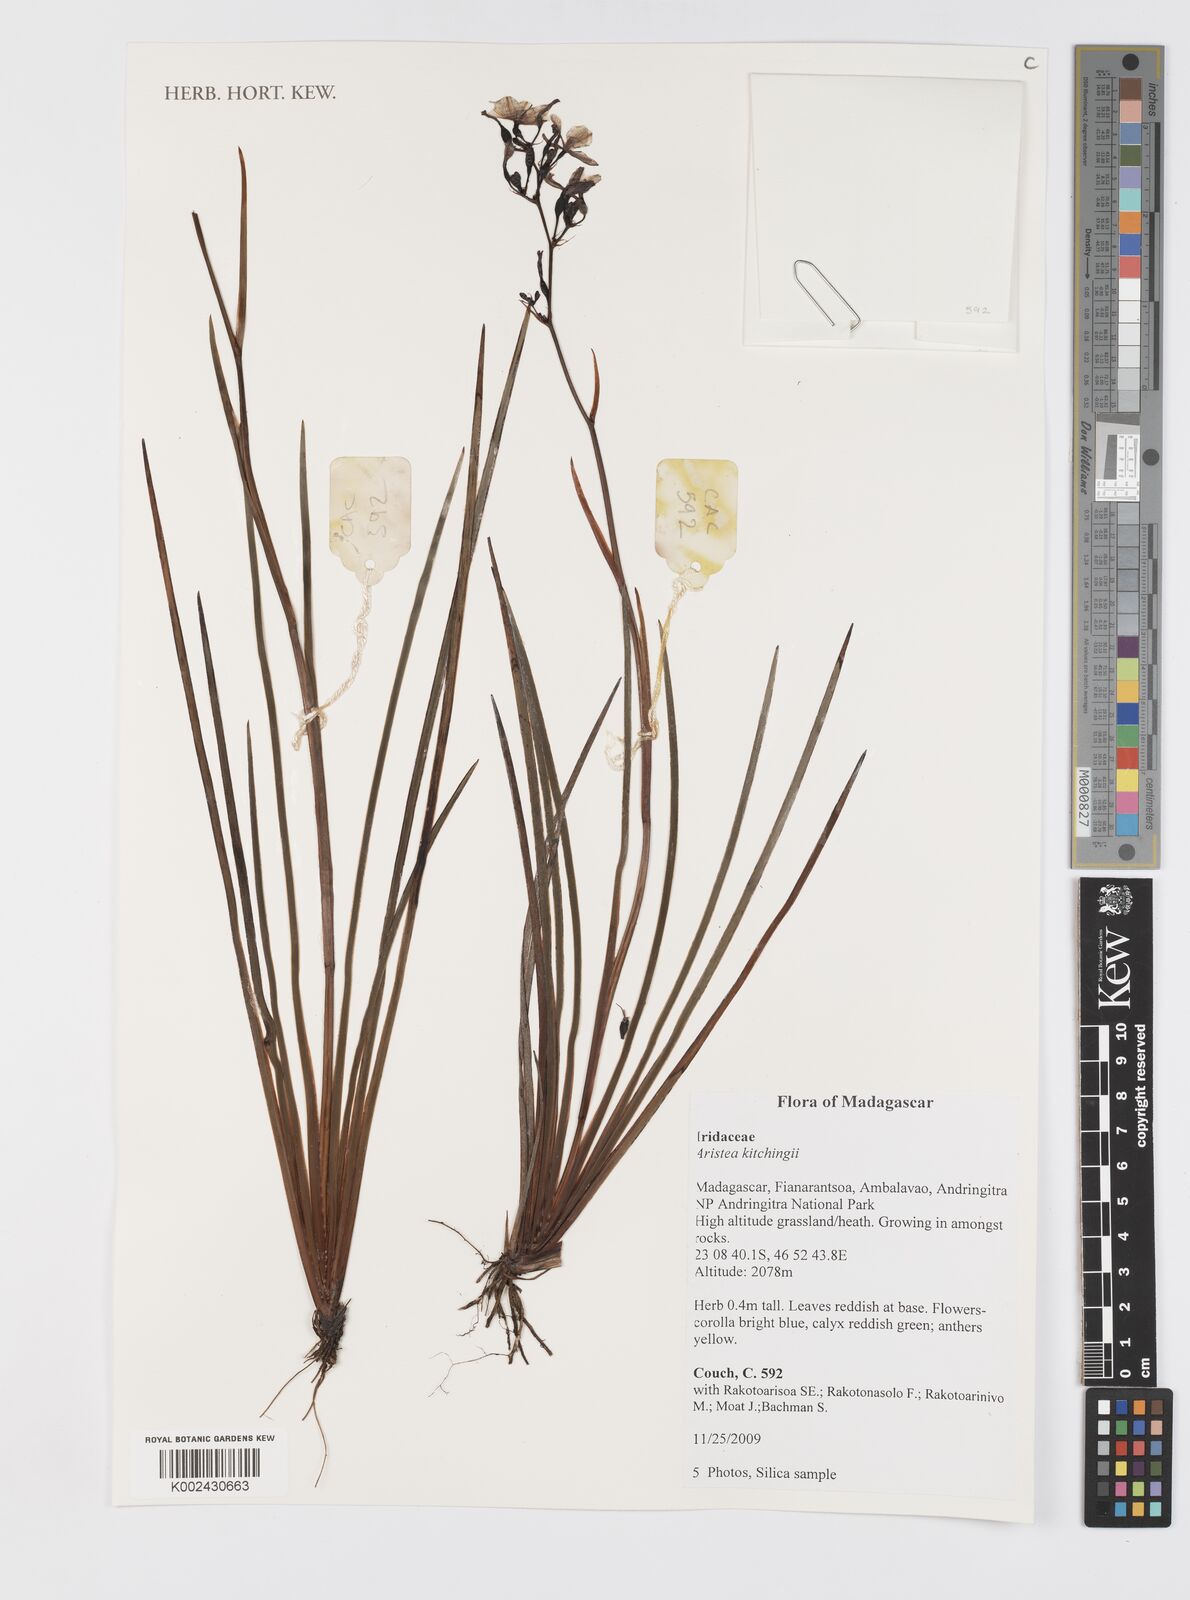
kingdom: Plantae
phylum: Tracheophyta
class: Liliopsida
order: Asparagales
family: Iridaceae
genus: Aristea
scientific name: Aristea kitchingii
